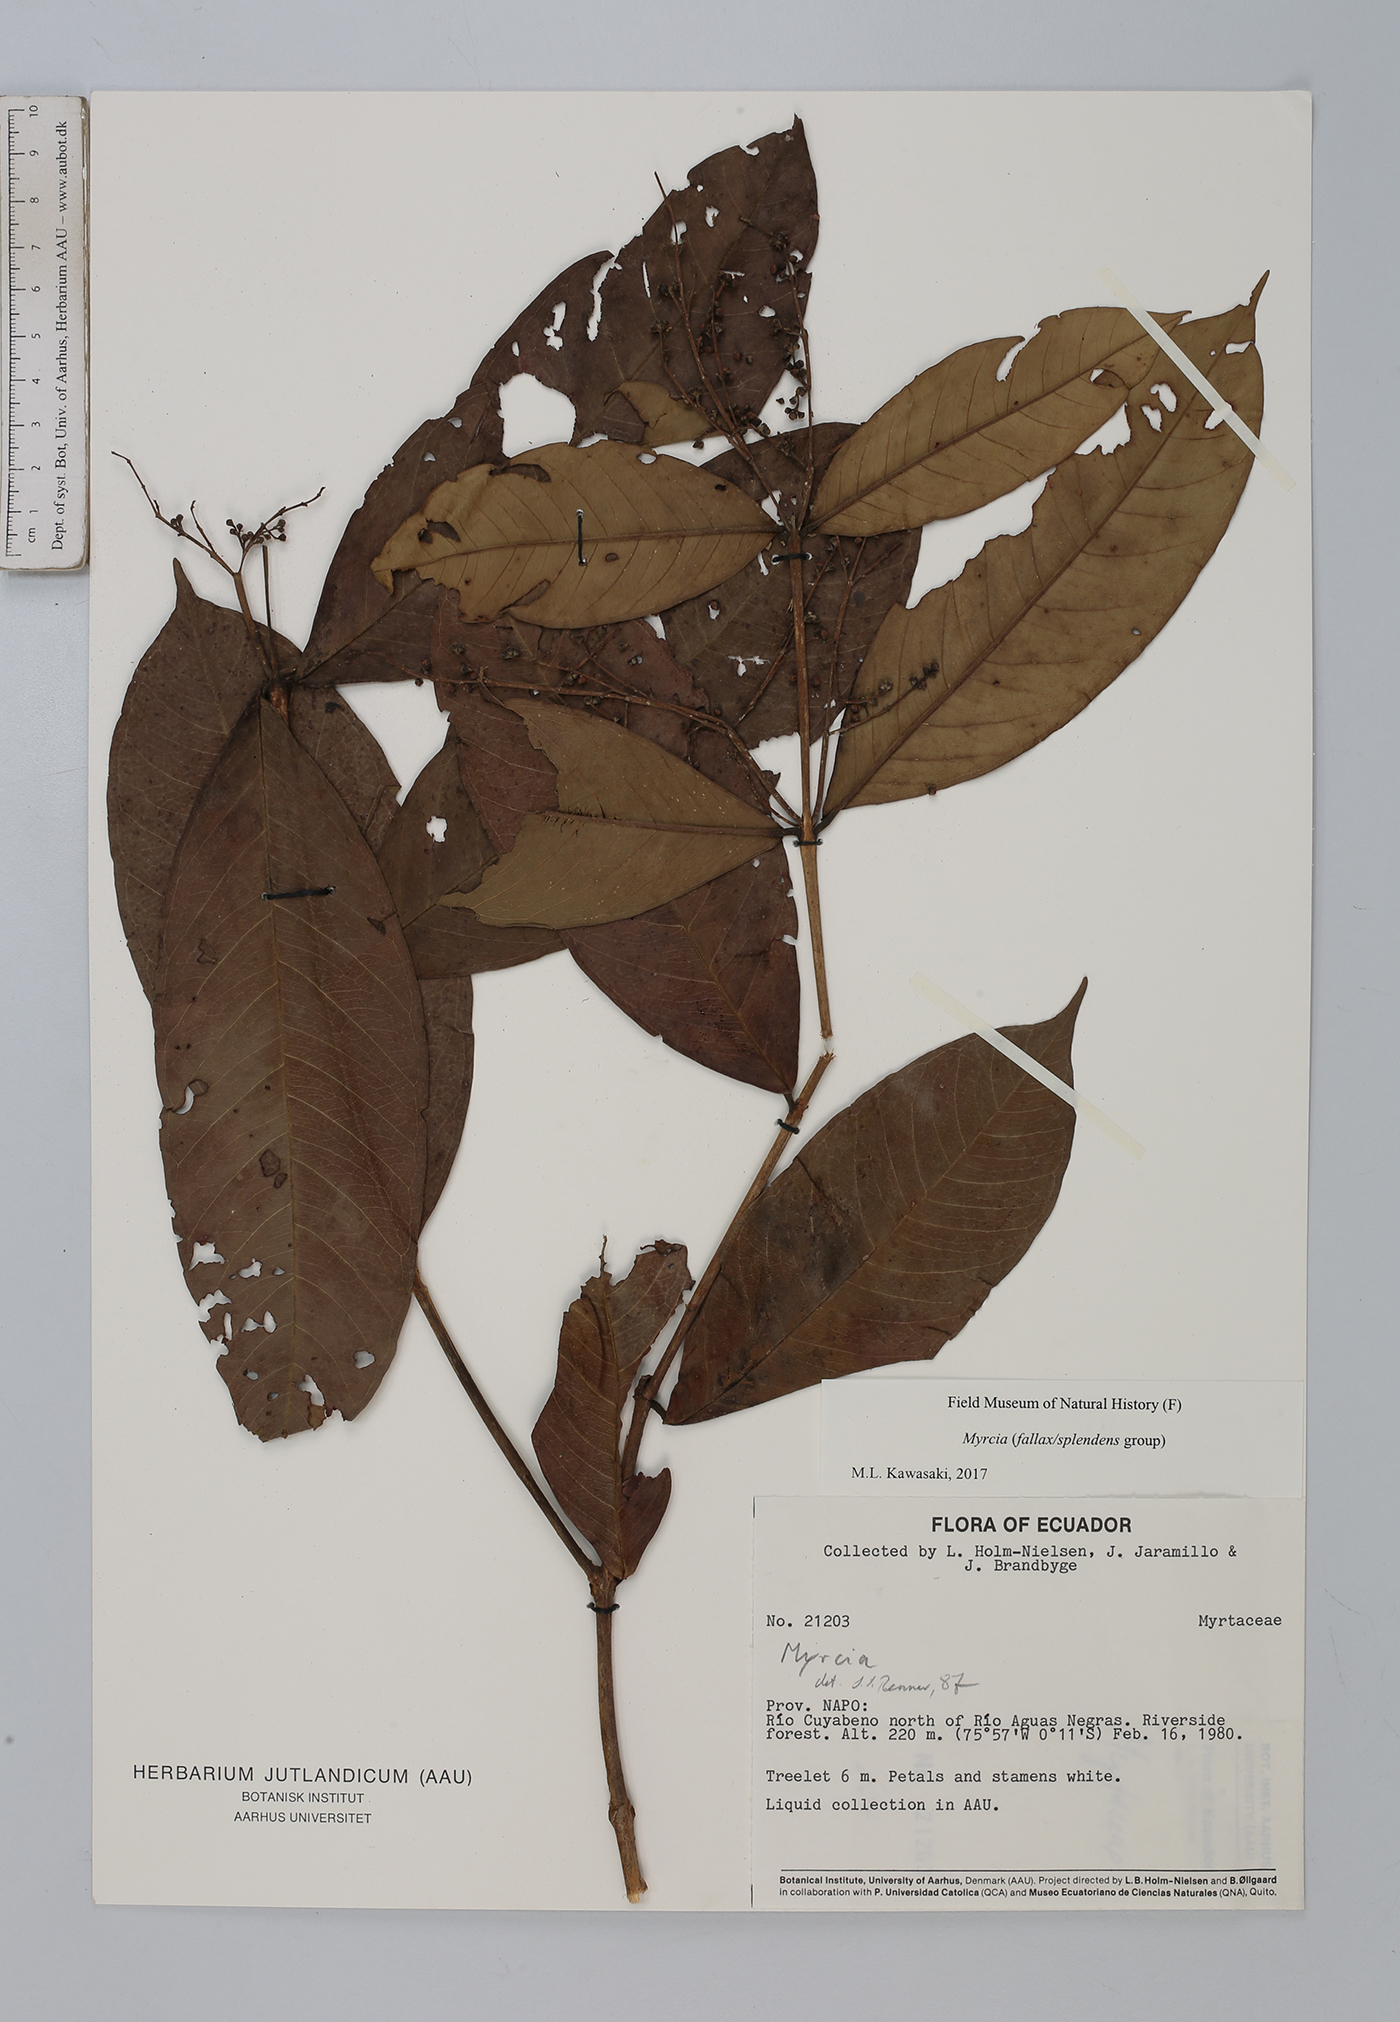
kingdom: Plantae
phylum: Tracheophyta
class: Magnoliopsida
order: Myrtales
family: Myrtaceae
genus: Myrcia
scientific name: Myrcia
